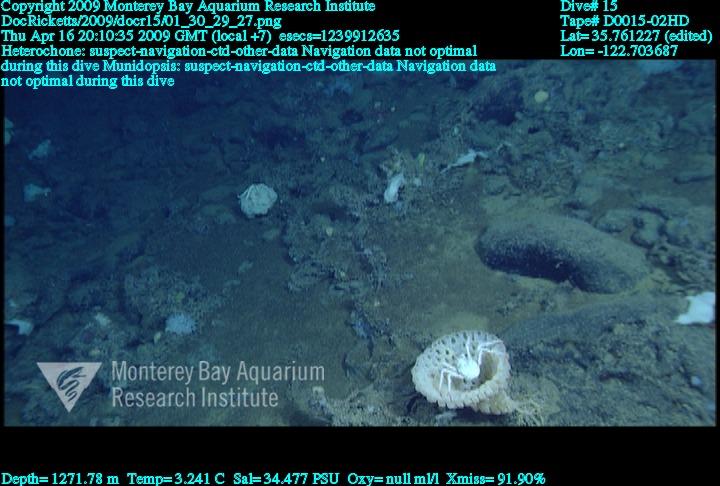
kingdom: Animalia
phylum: Porifera
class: Hexactinellida
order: Sceptrulophora
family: Aphrocallistidae
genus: Heterochone
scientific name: Heterochone
